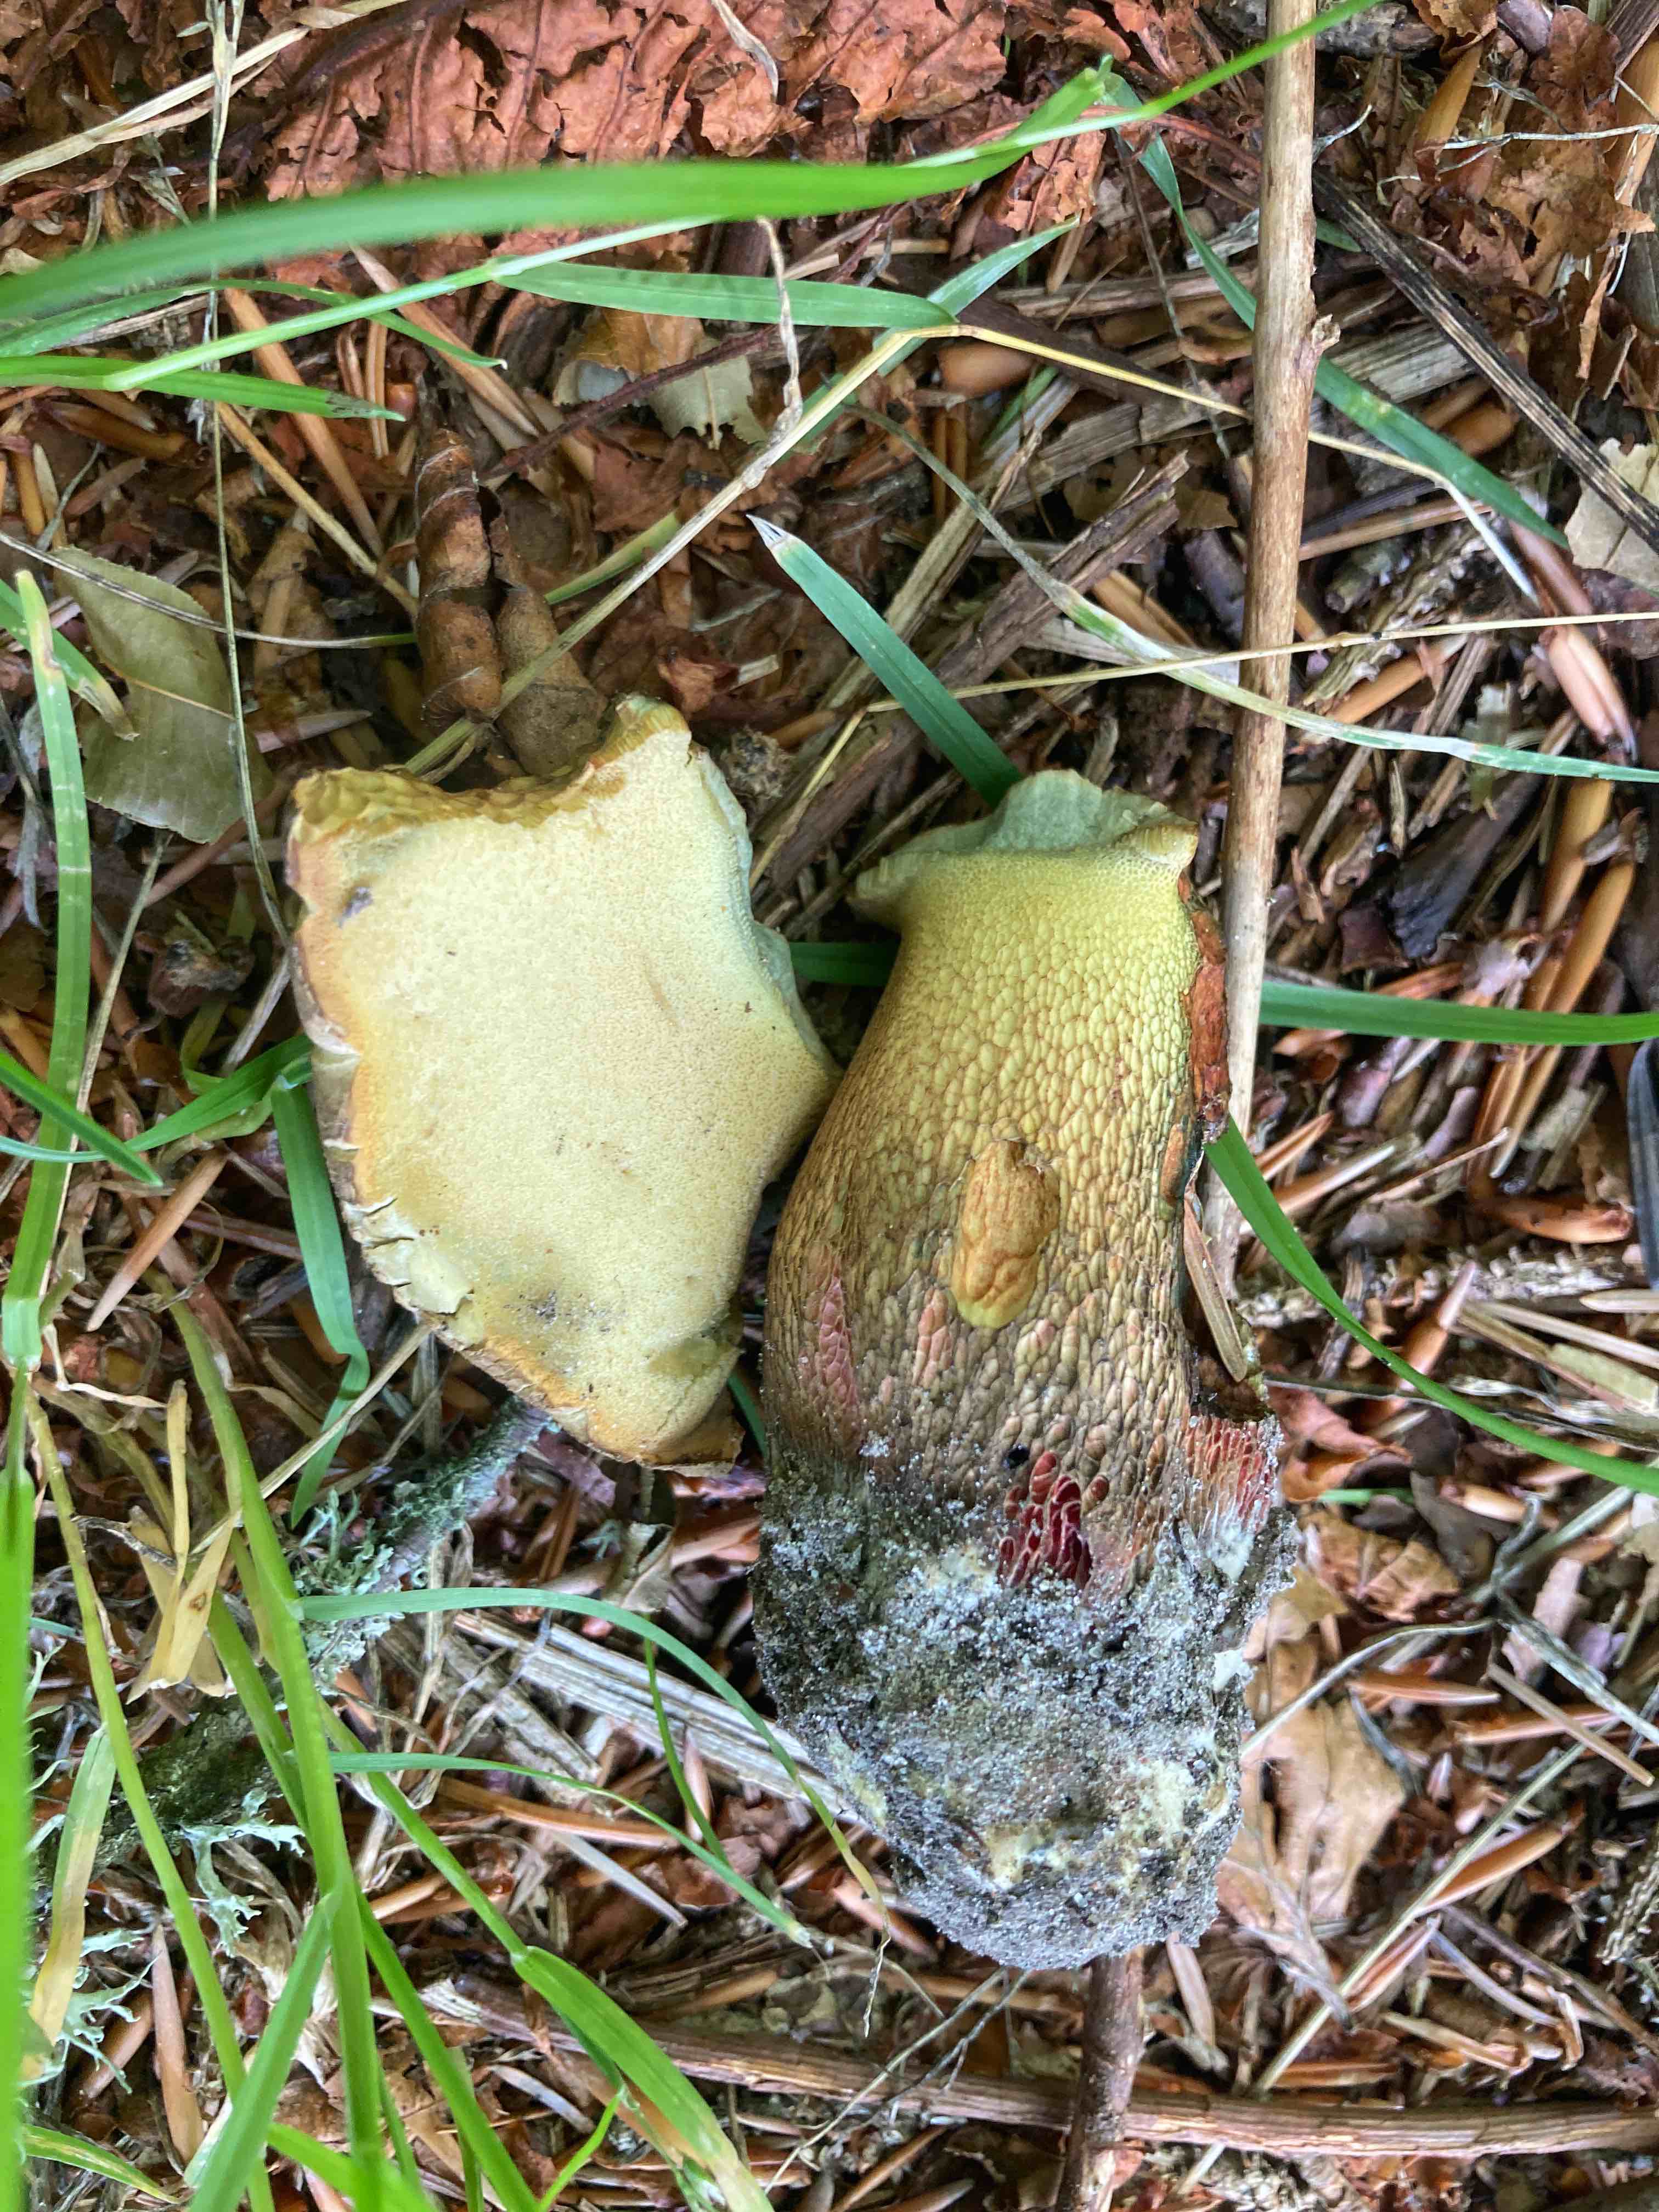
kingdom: Fungi
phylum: Basidiomycota
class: Agaricomycetes
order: Boletales
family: Boletaceae
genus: Caloboletus
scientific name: Caloboletus calopus
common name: skønfodet rørhat
